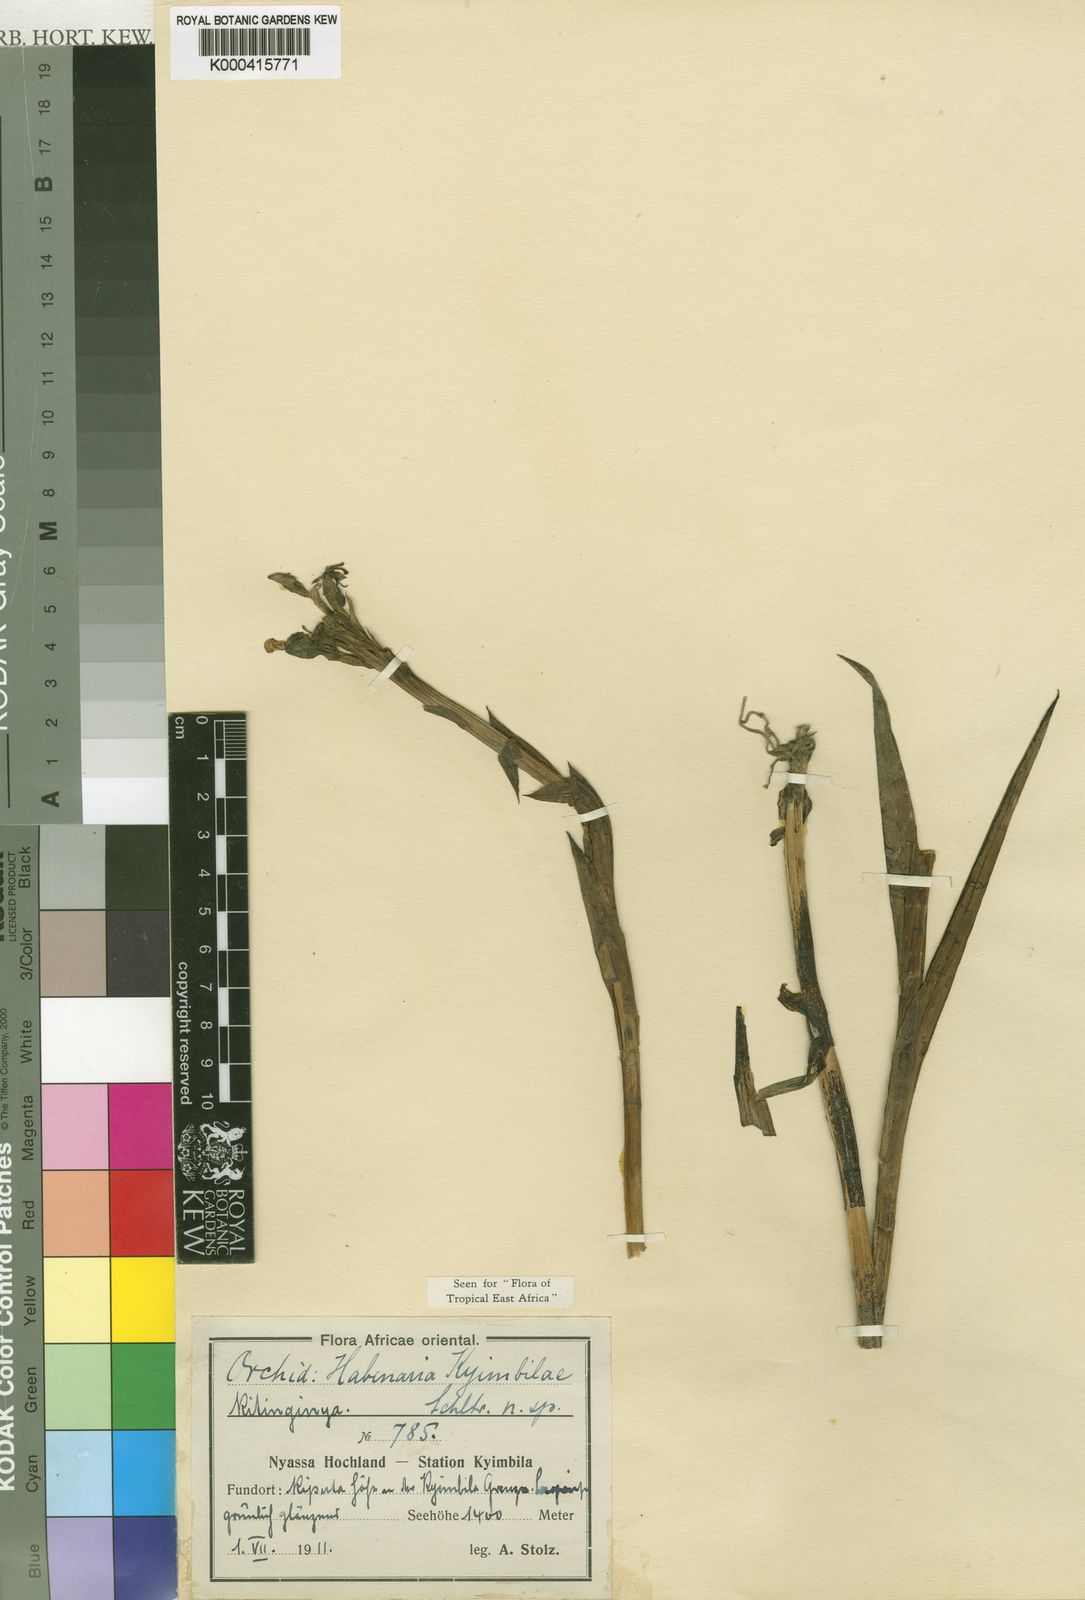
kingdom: Plantae
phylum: Tracheophyta
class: Liliopsida
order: Asparagales
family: Orchidaceae
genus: Habenaria
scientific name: Habenaria kyimbilae
